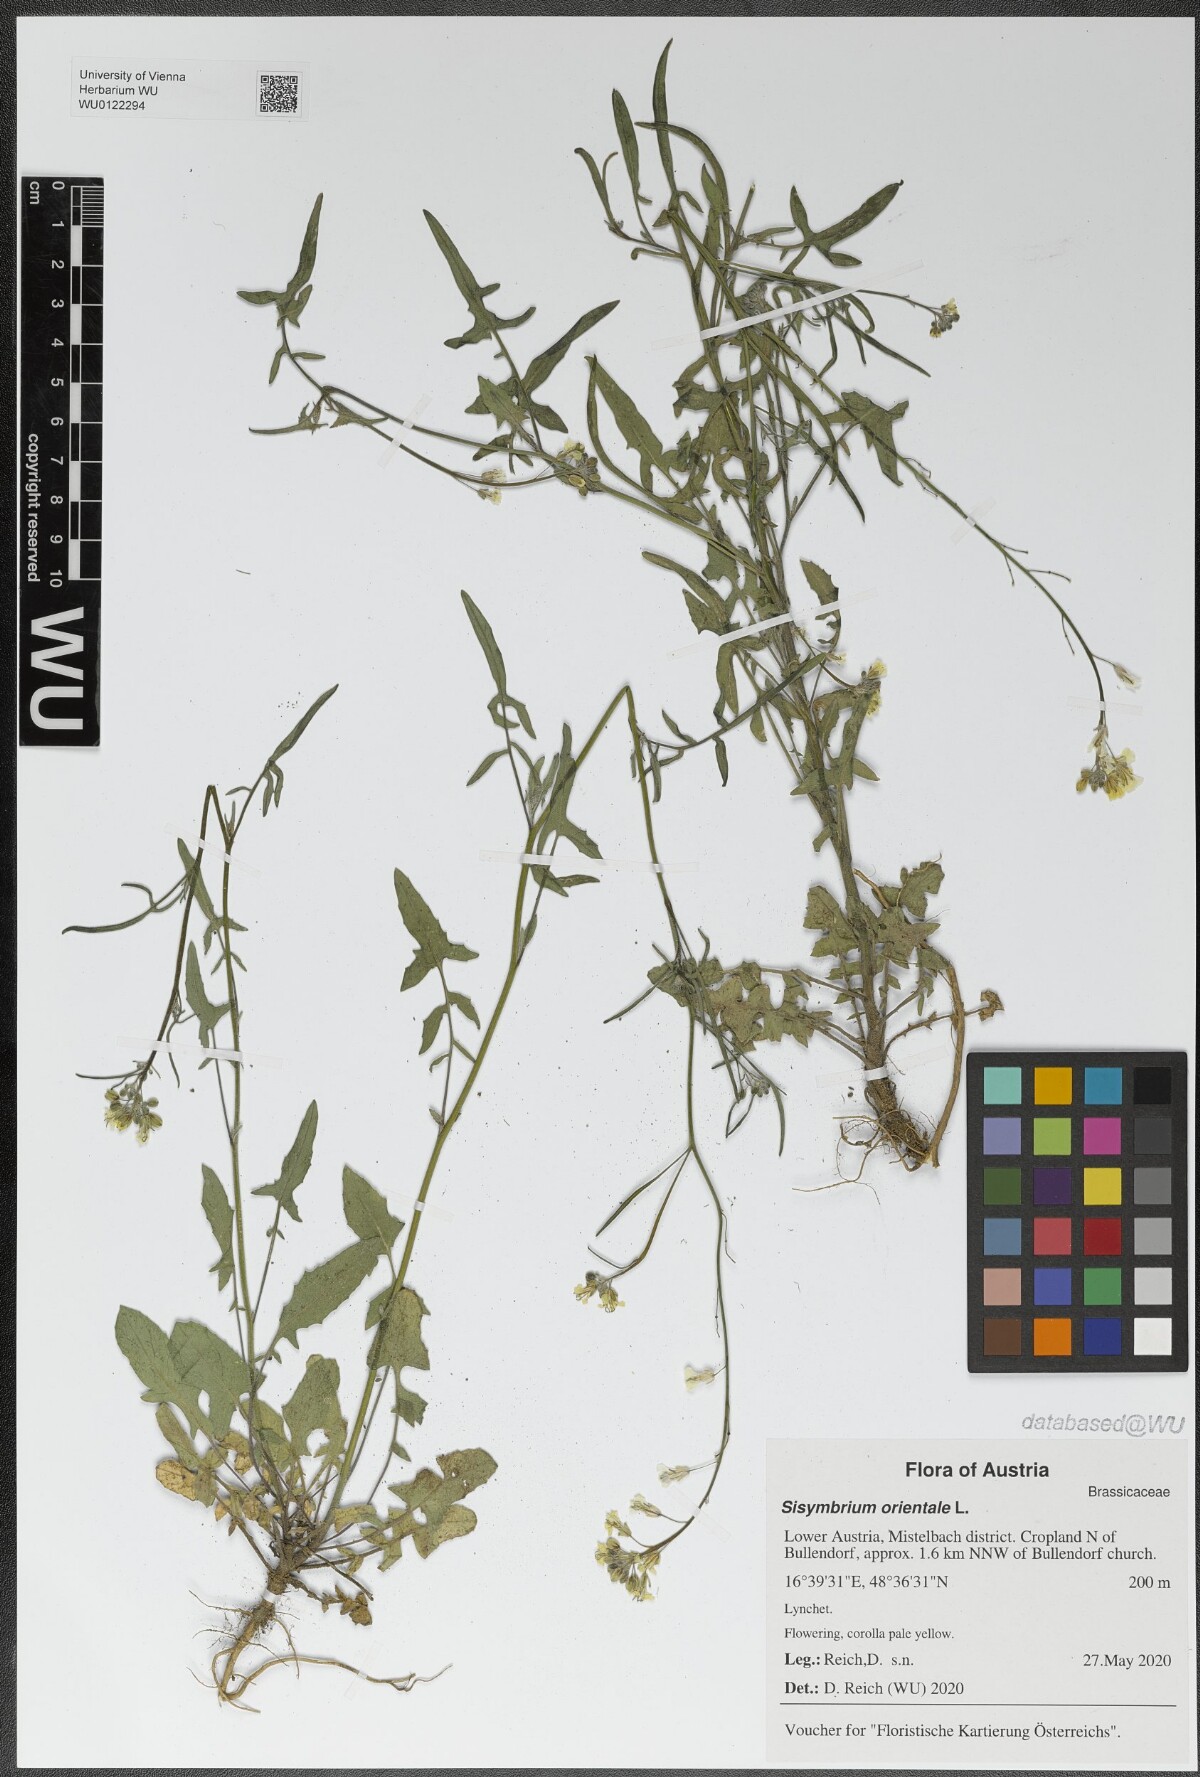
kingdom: Plantae
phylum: Tracheophyta
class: Magnoliopsida
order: Brassicales
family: Brassicaceae
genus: Sisymbrium
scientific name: Sisymbrium orientale
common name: Eastern rocket
